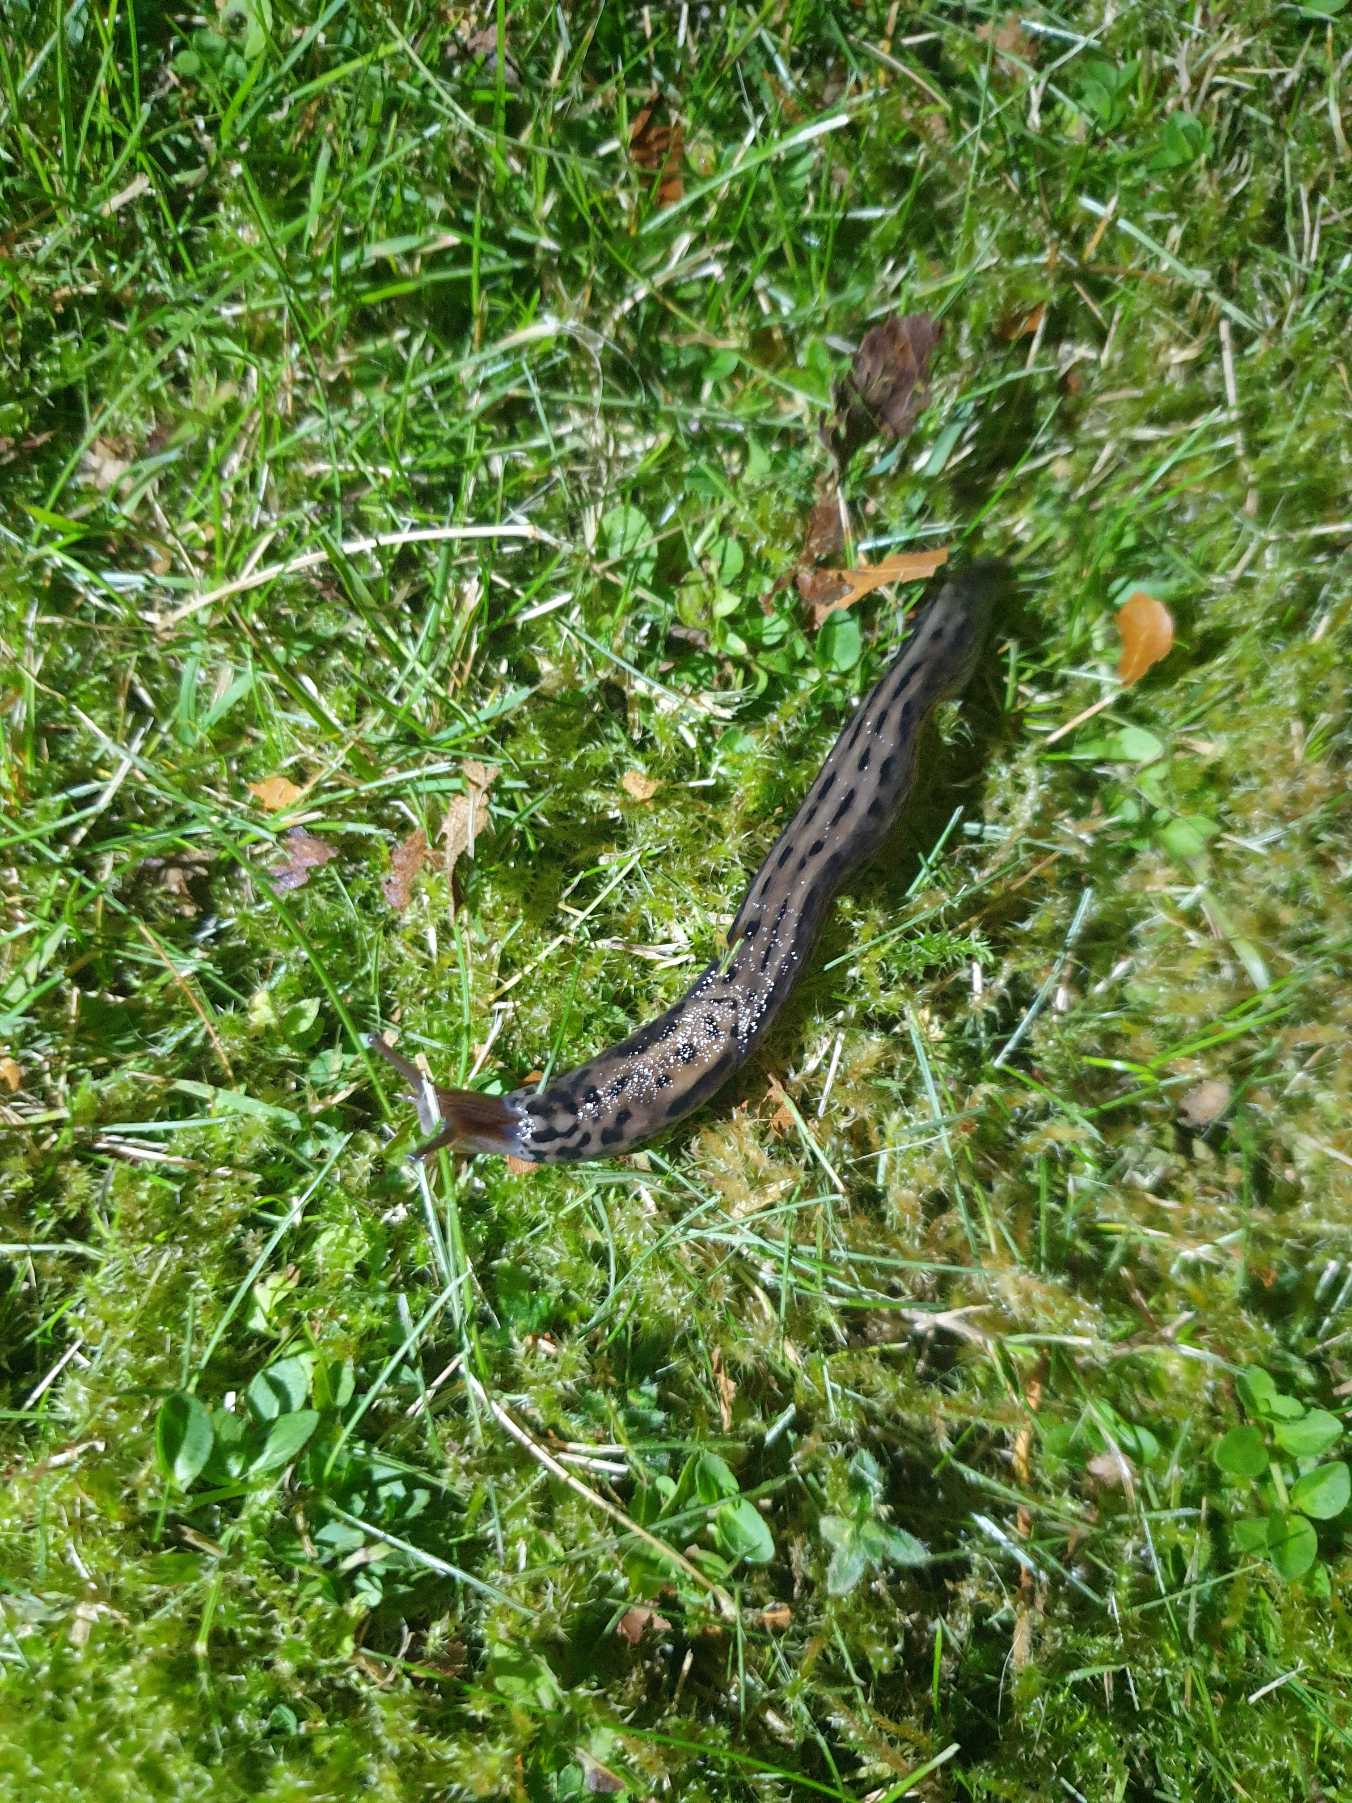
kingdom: Animalia
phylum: Mollusca
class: Gastropoda
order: Stylommatophora
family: Limacidae
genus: Limax
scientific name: Limax maximus
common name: Pantersnegl
